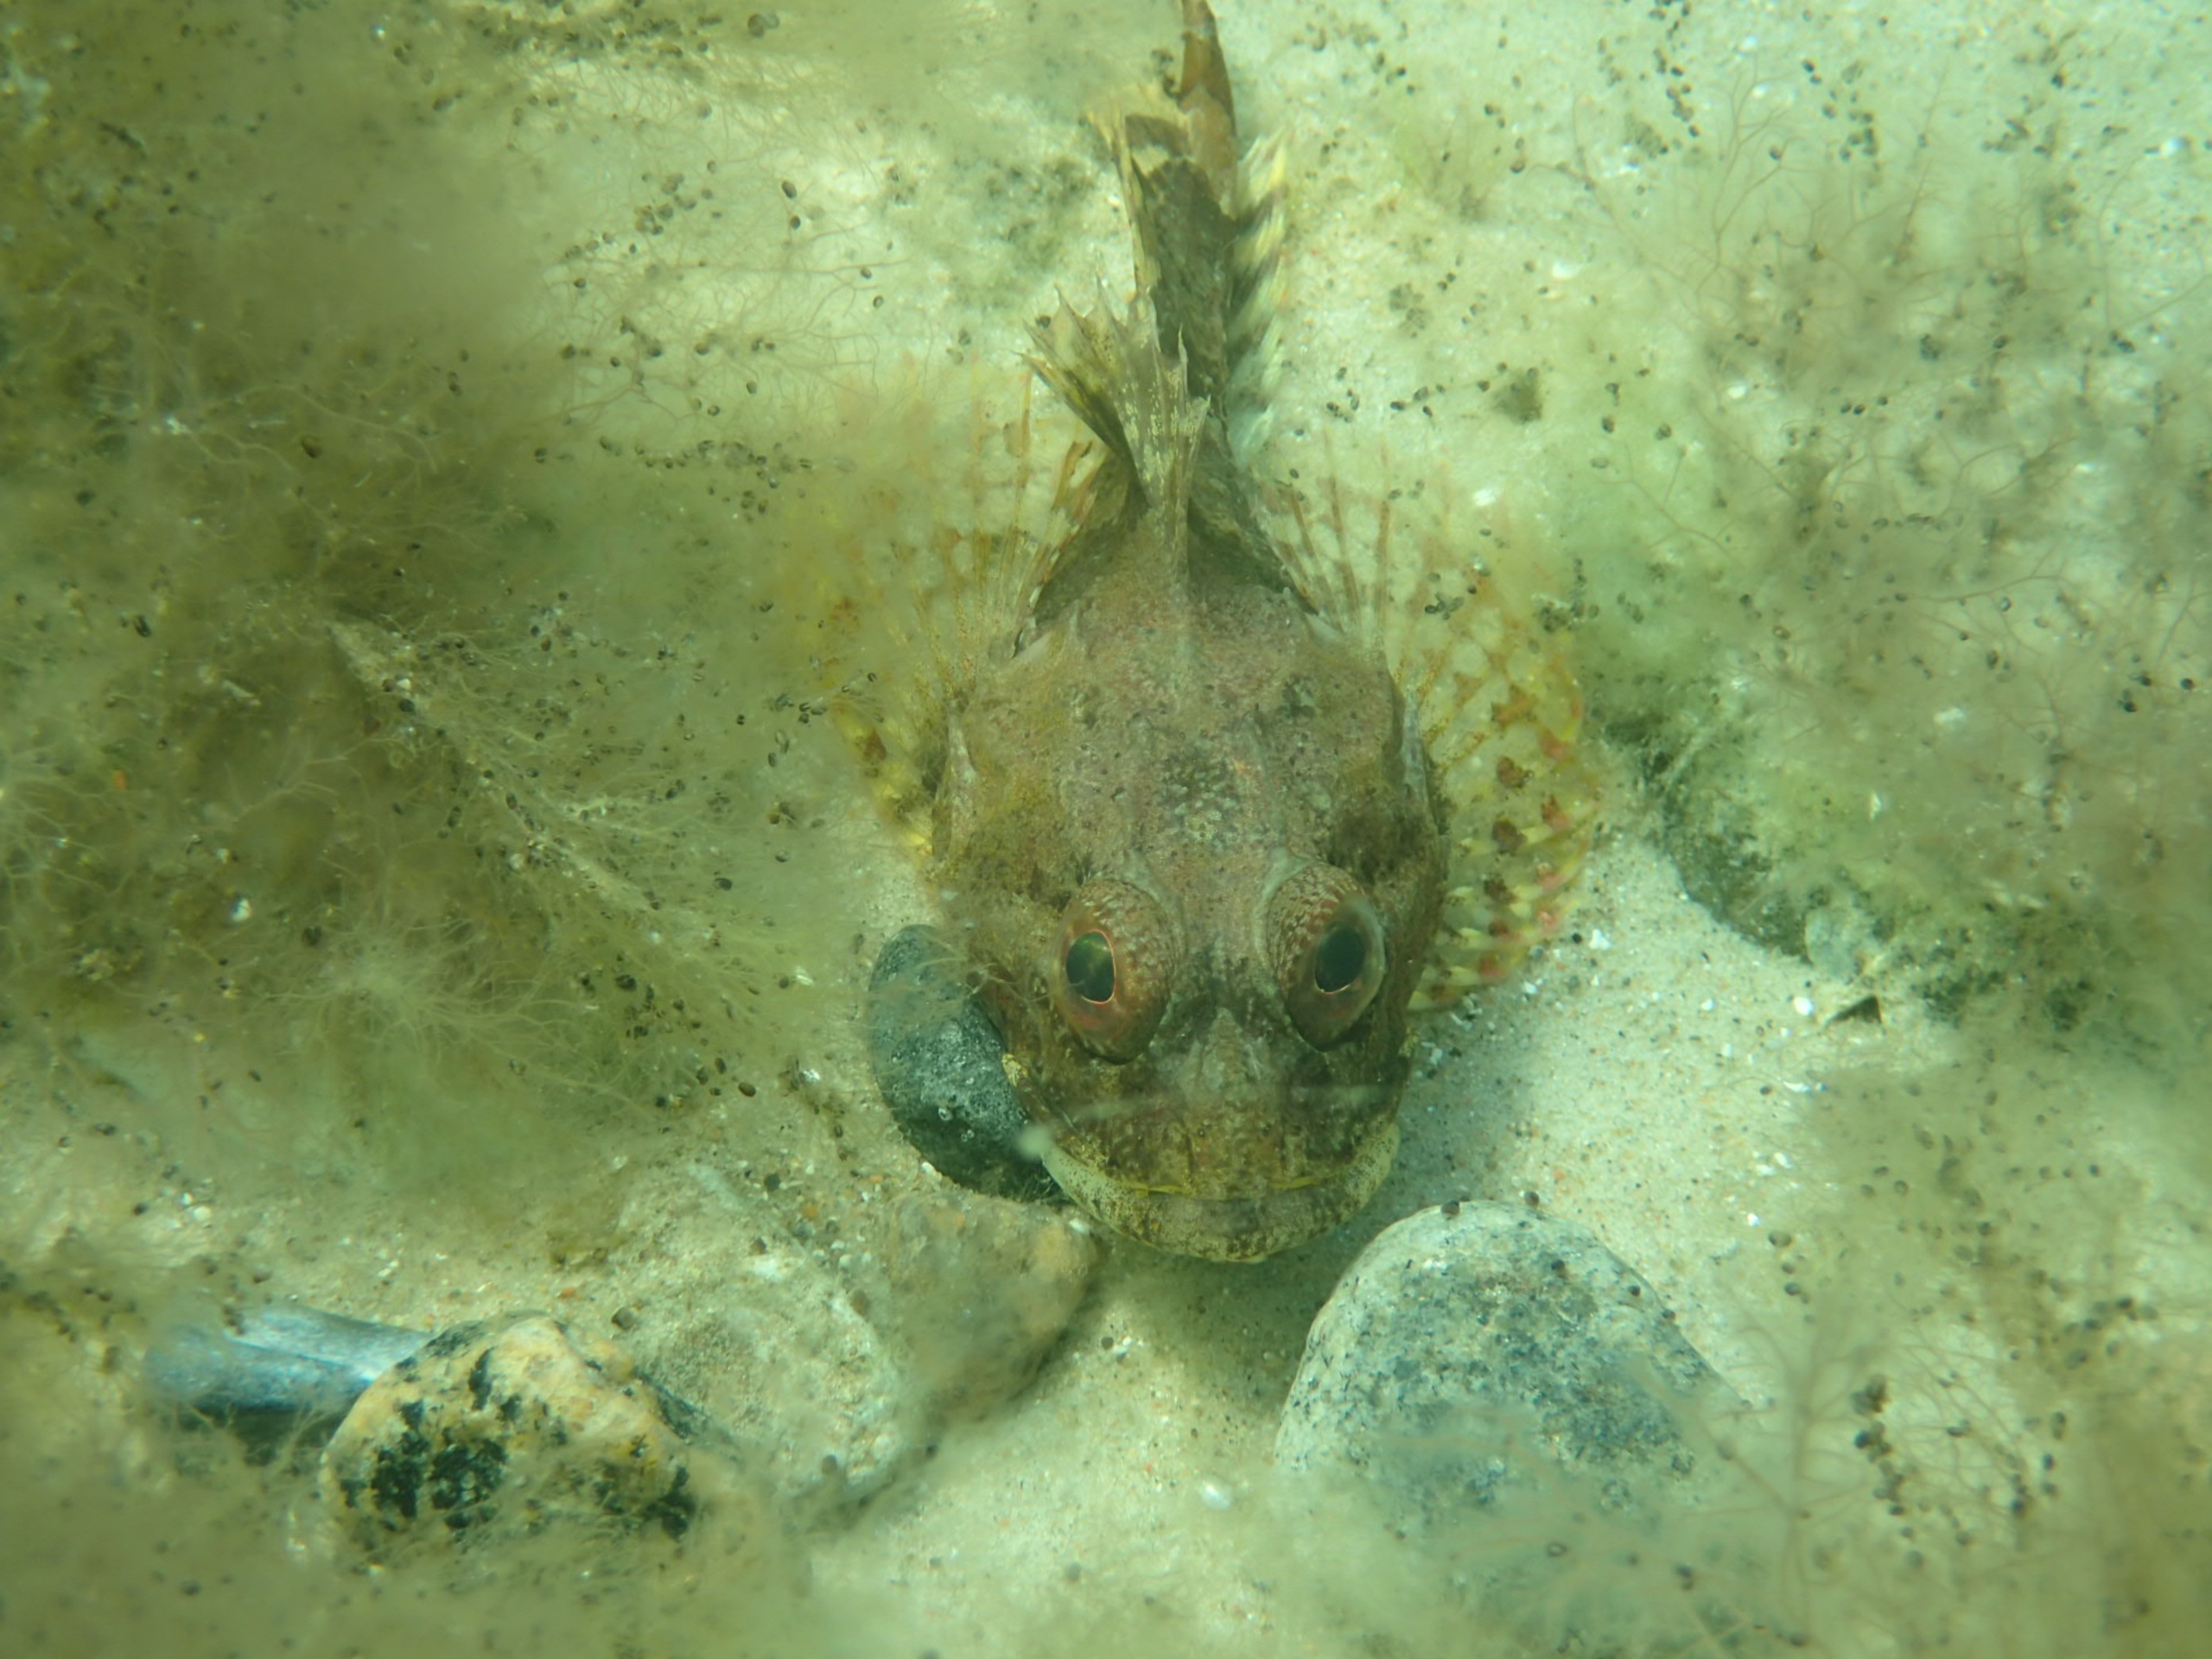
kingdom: Animalia
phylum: Chordata
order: Scorpaeniformes
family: Cottidae
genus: Myoxocephalus
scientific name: Myoxocephalus scorpius
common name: Almindelig ulk
